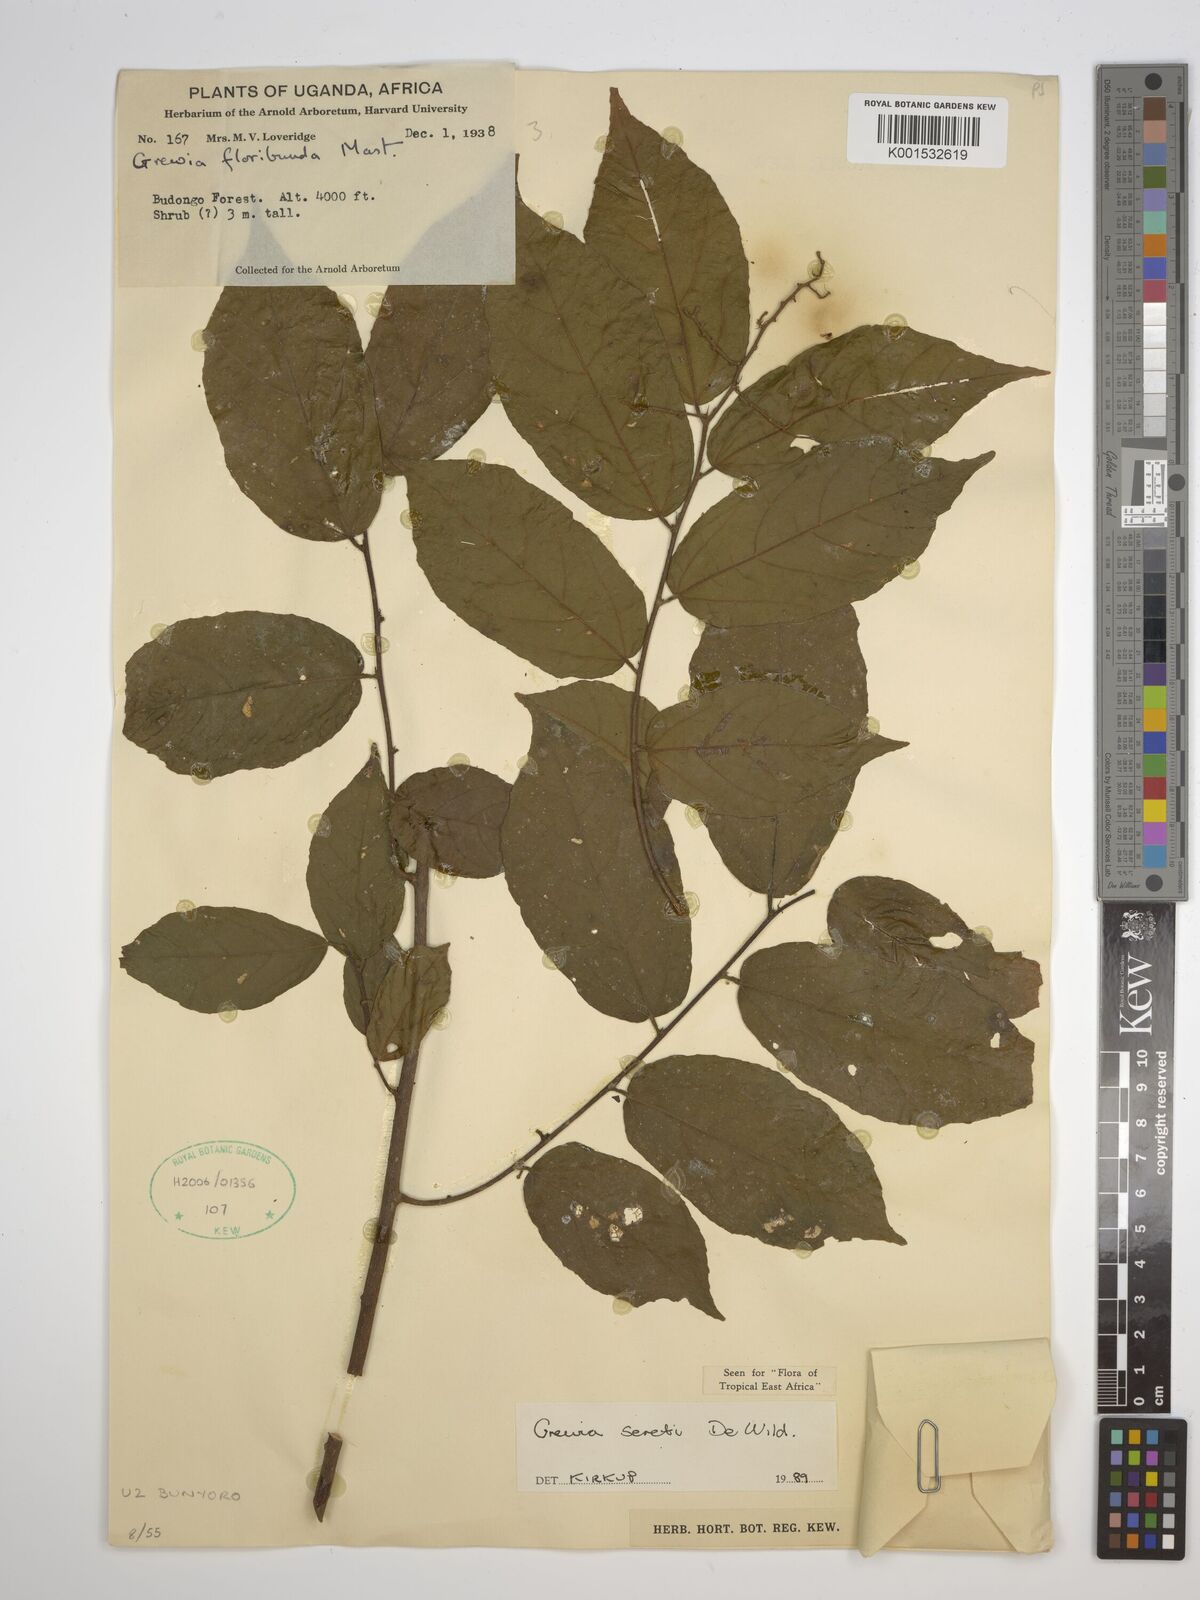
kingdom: Plantae
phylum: Tracheophyta
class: Magnoliopsida
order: Malvales
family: Malvaceae
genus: Microcos
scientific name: Microcos seretii
